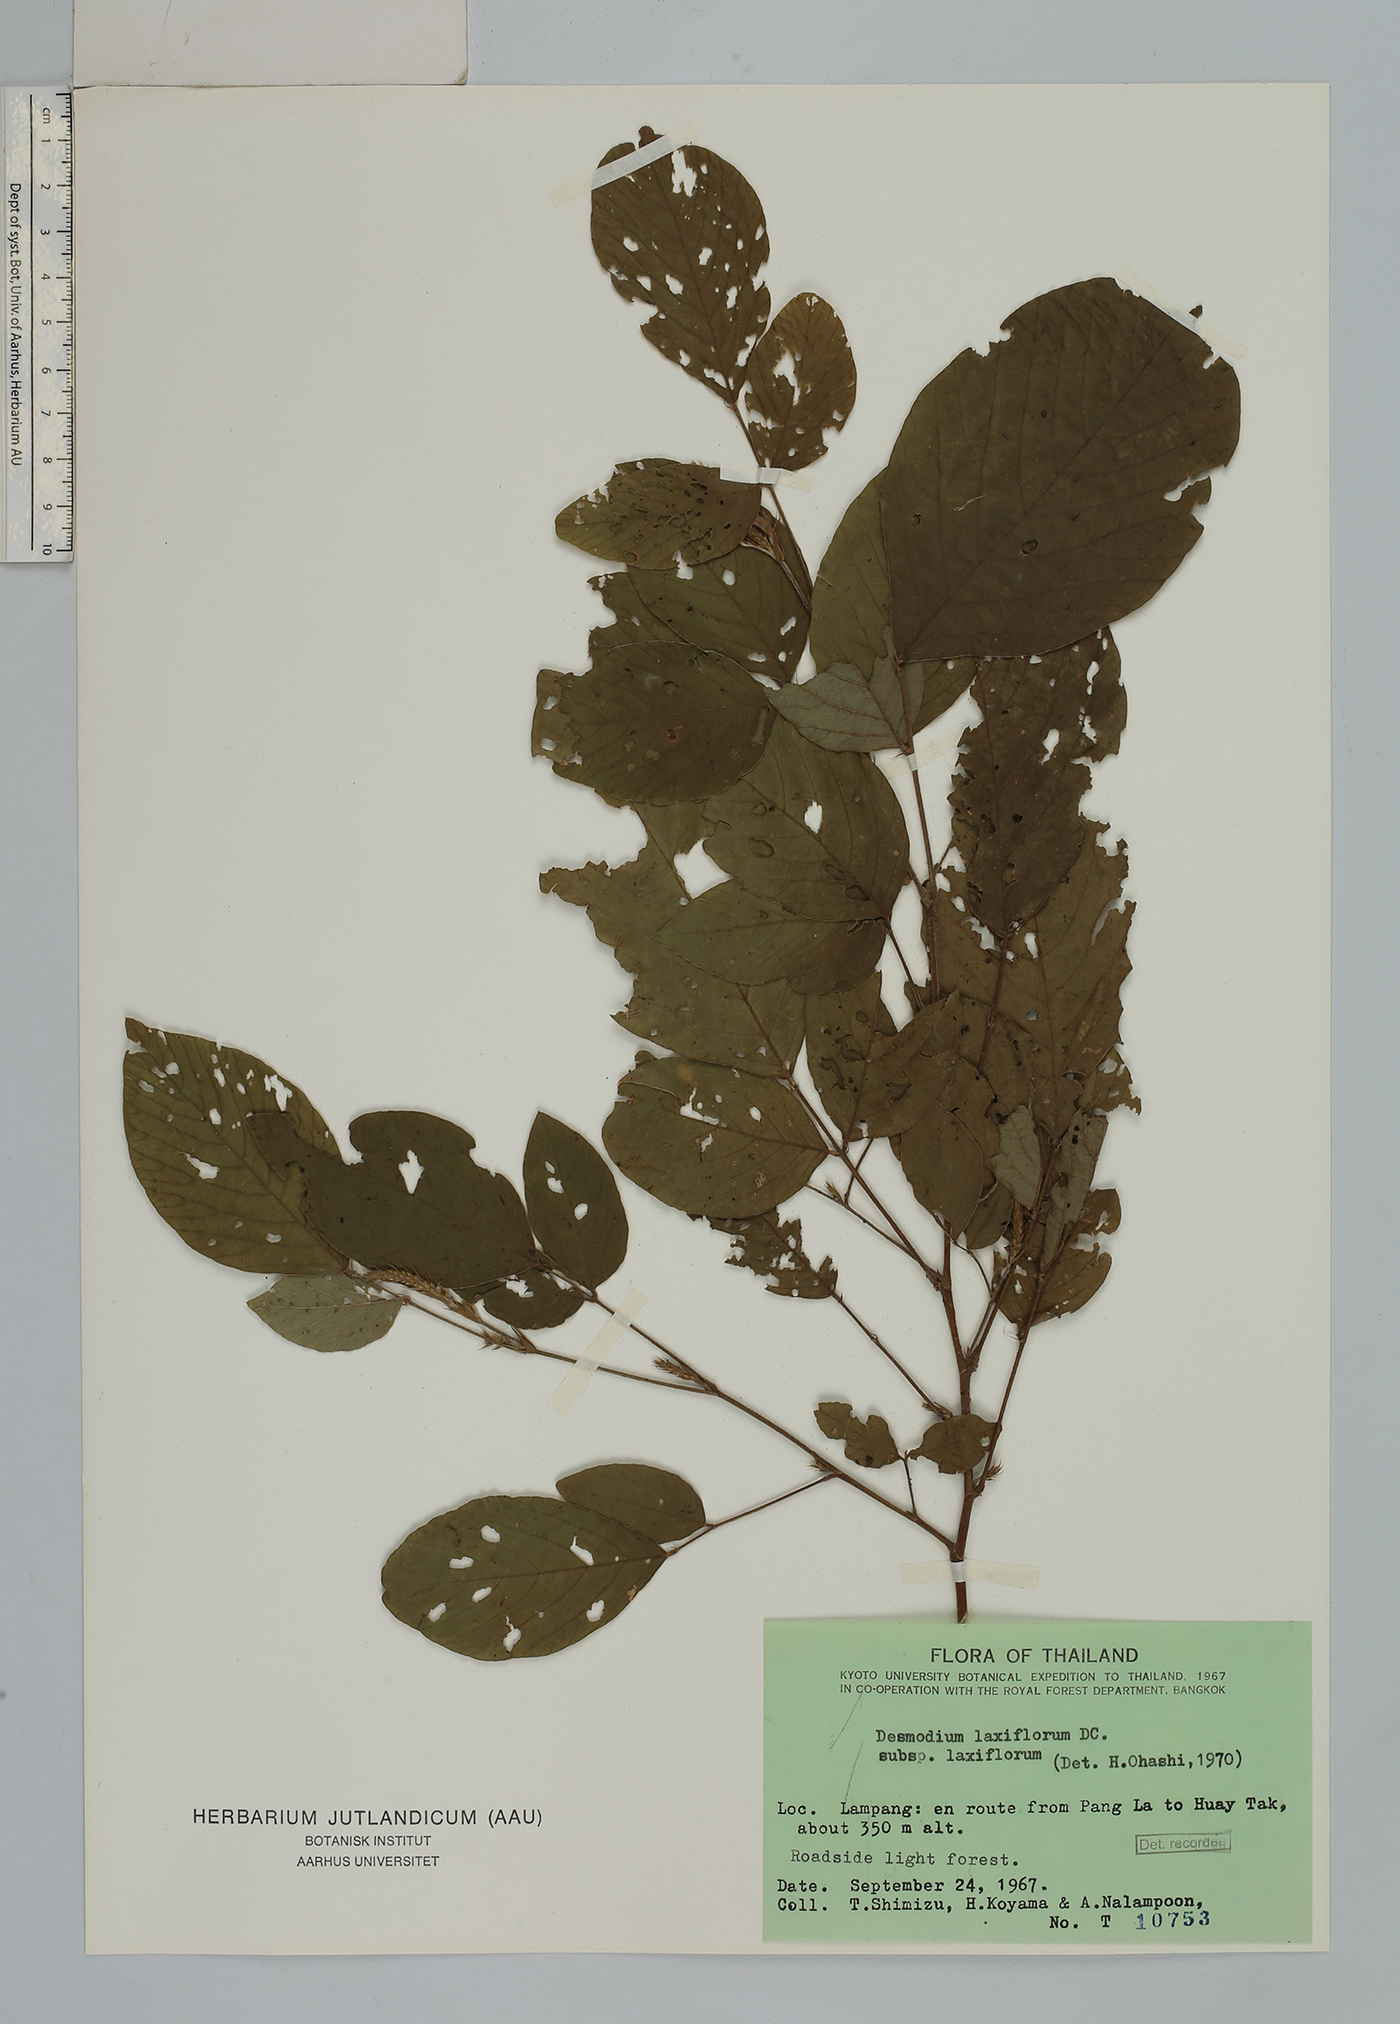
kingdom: Plantae
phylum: Tracheophyta
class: Magnoliopsida
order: Fabales
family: Fabaceae
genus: Sohmaea
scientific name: Sohmaea laxiflora
